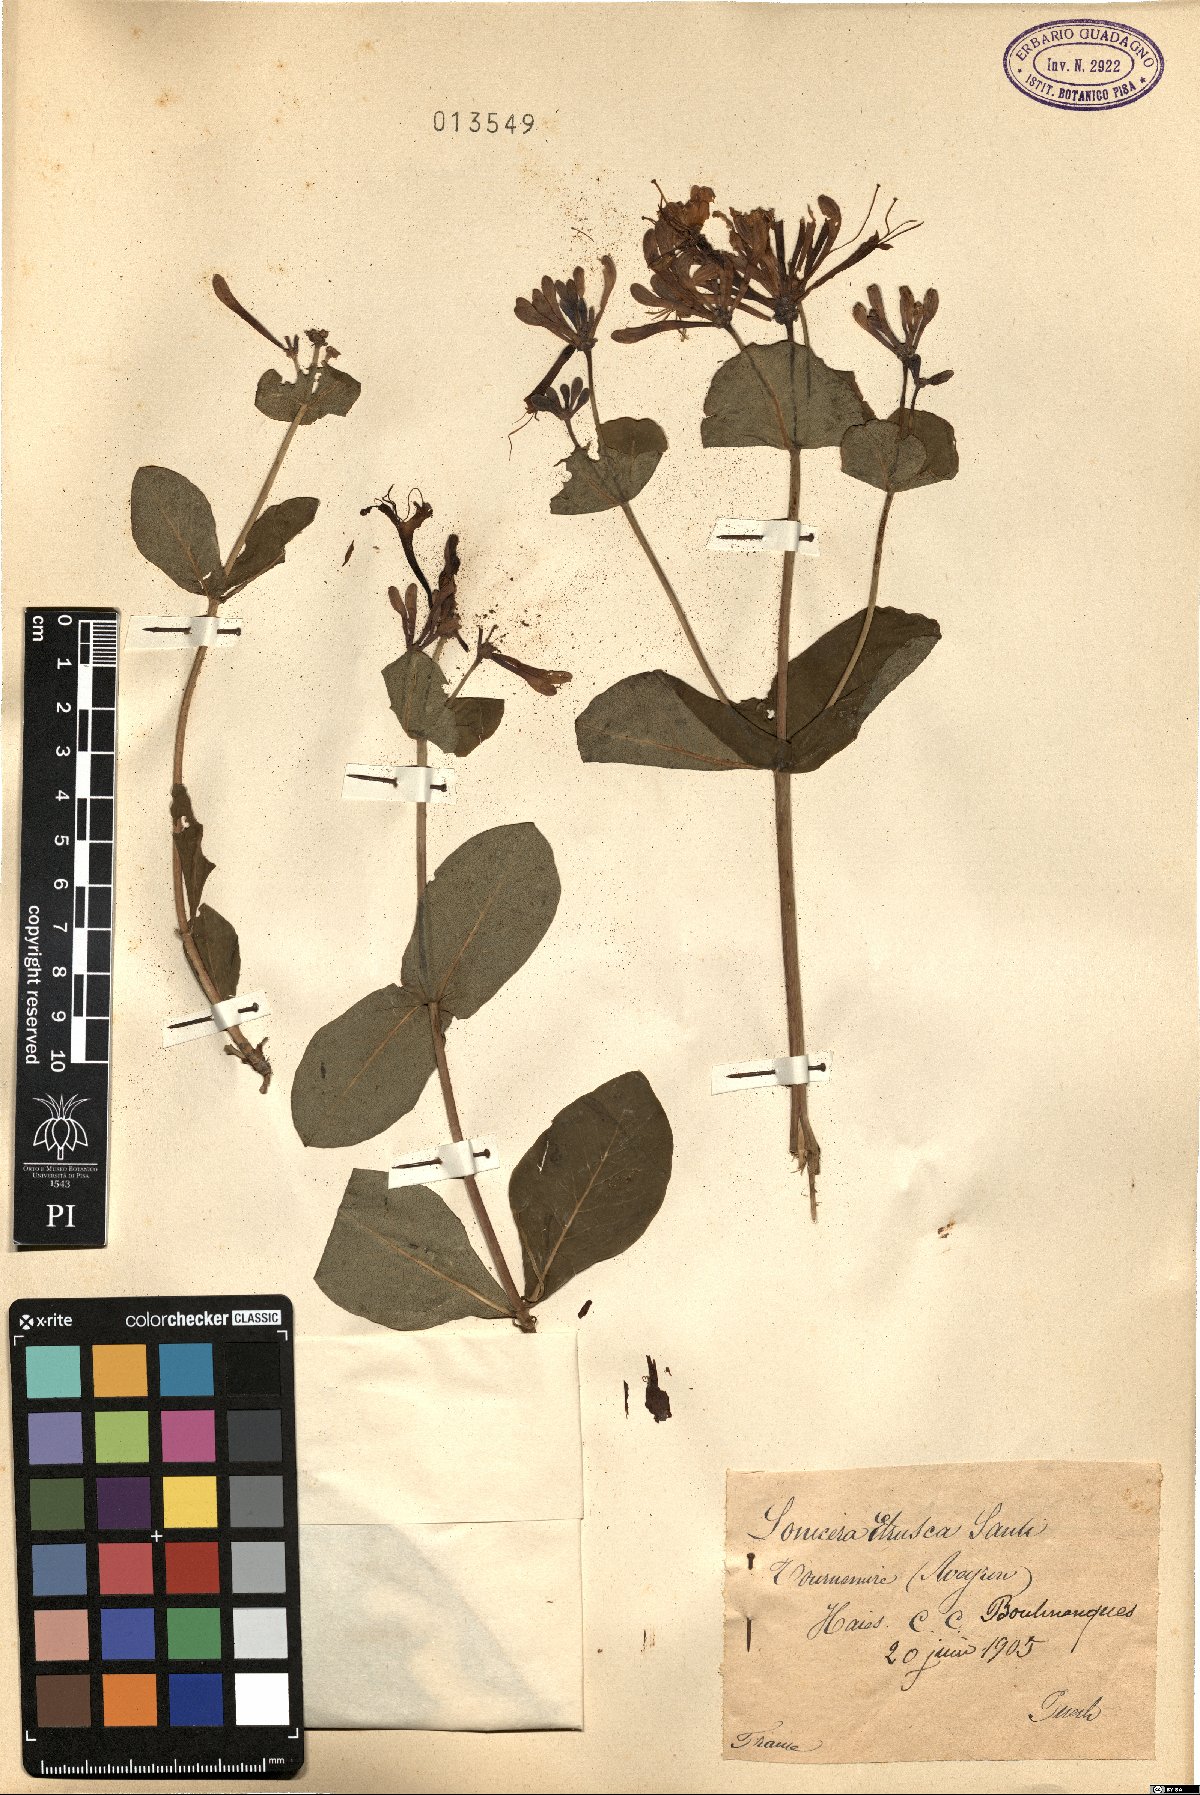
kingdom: Plantae
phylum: Tracheophyta
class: Magnoliopsida
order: Dipsacales
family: Caprifoliaceae
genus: Lonicera
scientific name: Lonicera etrusca
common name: Etruscan honeysuckle
